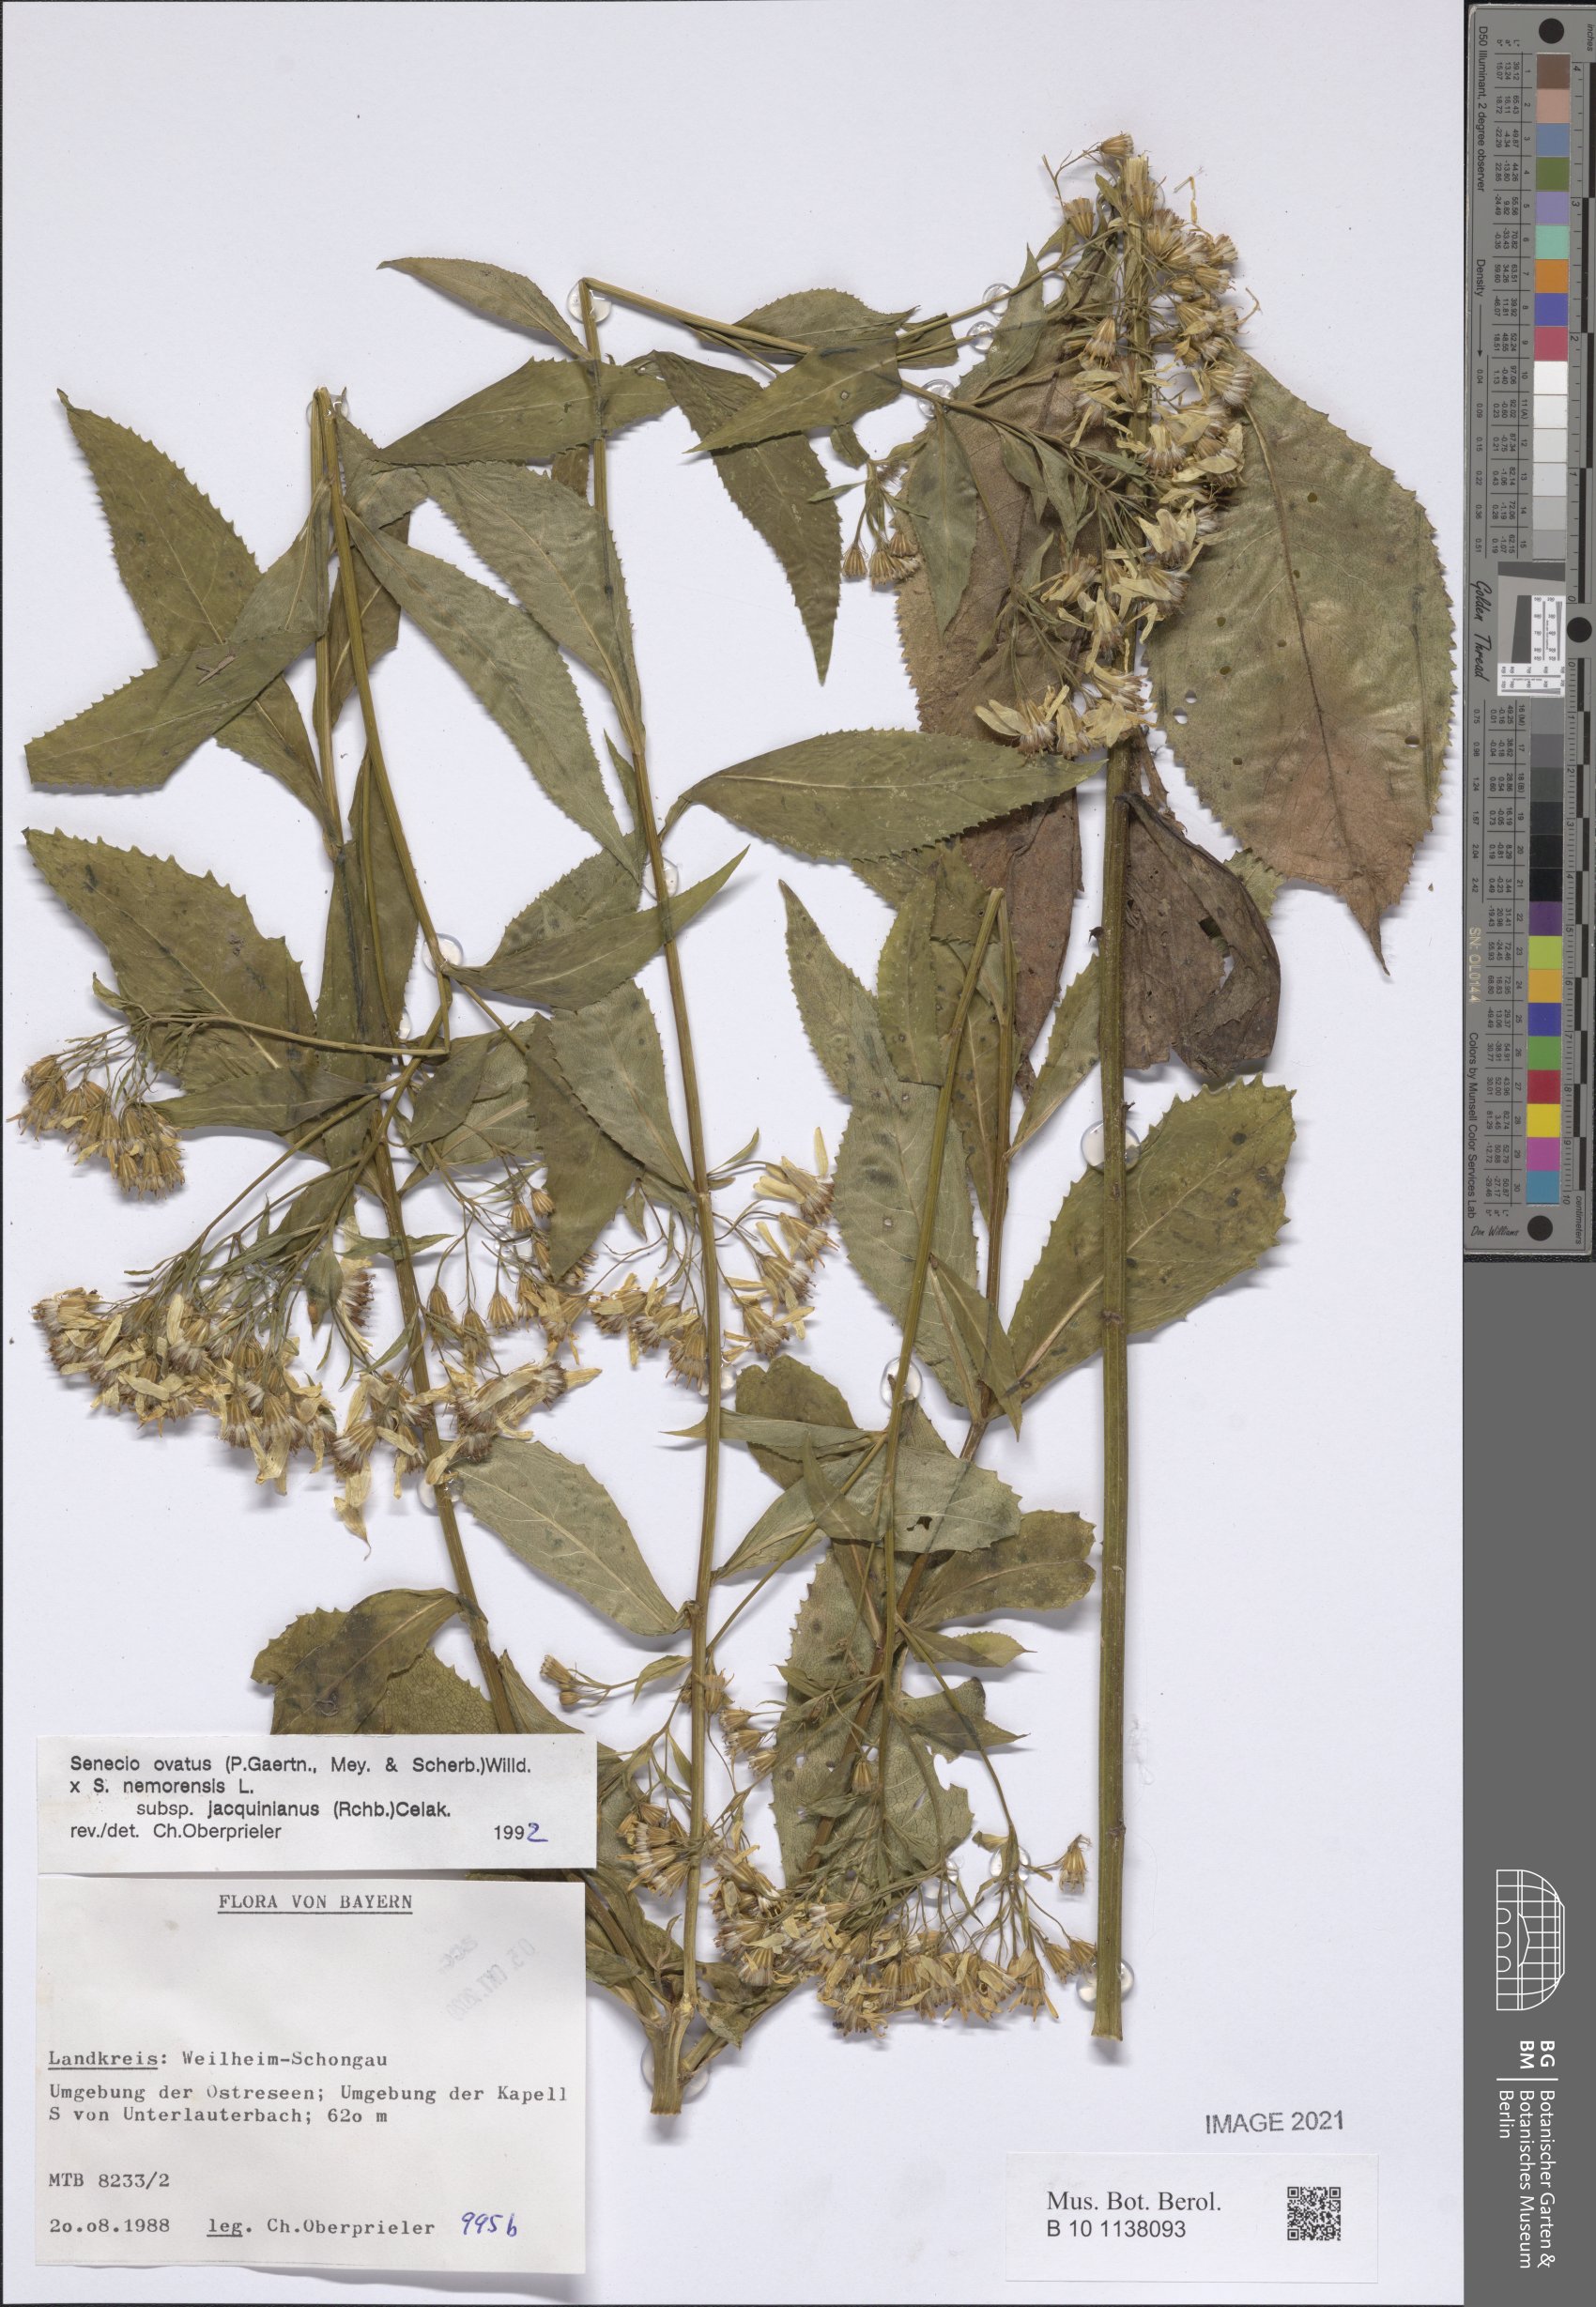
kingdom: Plantae
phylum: Tracheophyta
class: Magnoliopsida
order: Asterales
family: Asteraceae
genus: Senecio
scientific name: Senecio ovatus
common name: Wood ragwort
